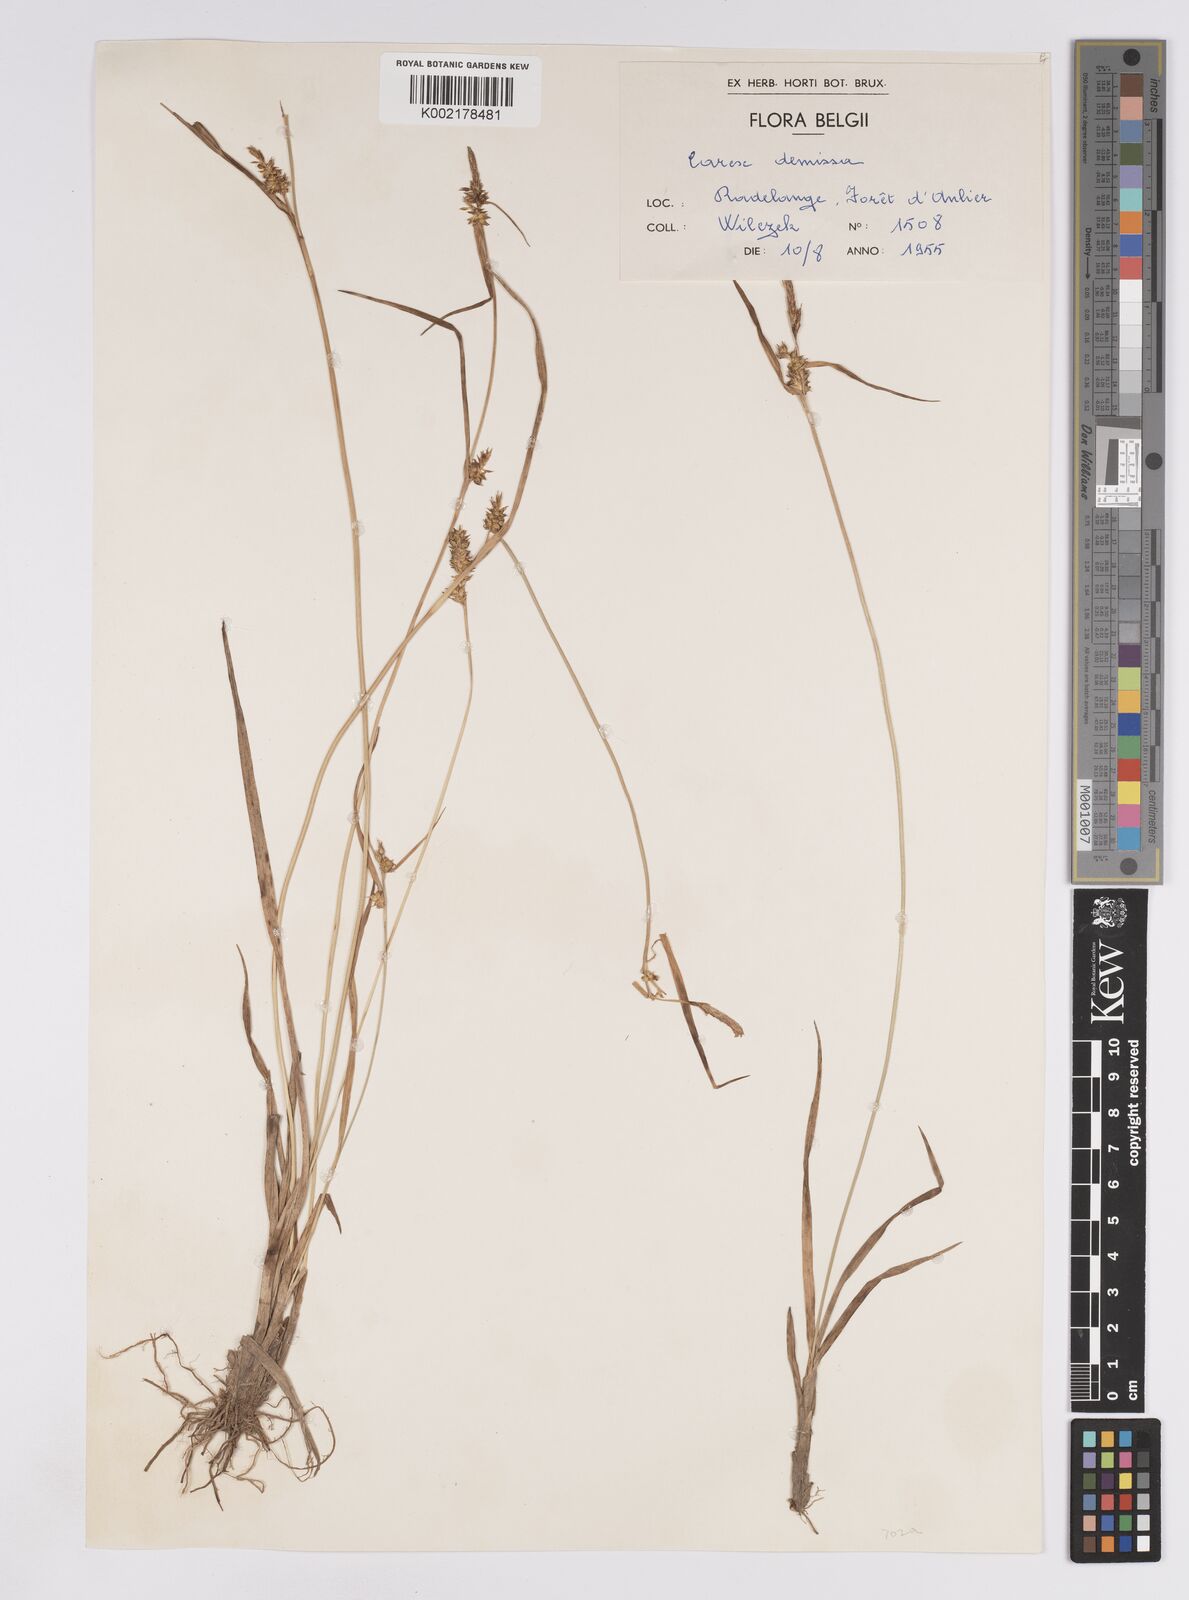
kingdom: Plantae
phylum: Tracheophyta
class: Liliopsida
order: Poales
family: Cyperaceae
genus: Carex
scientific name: Carex demissa
